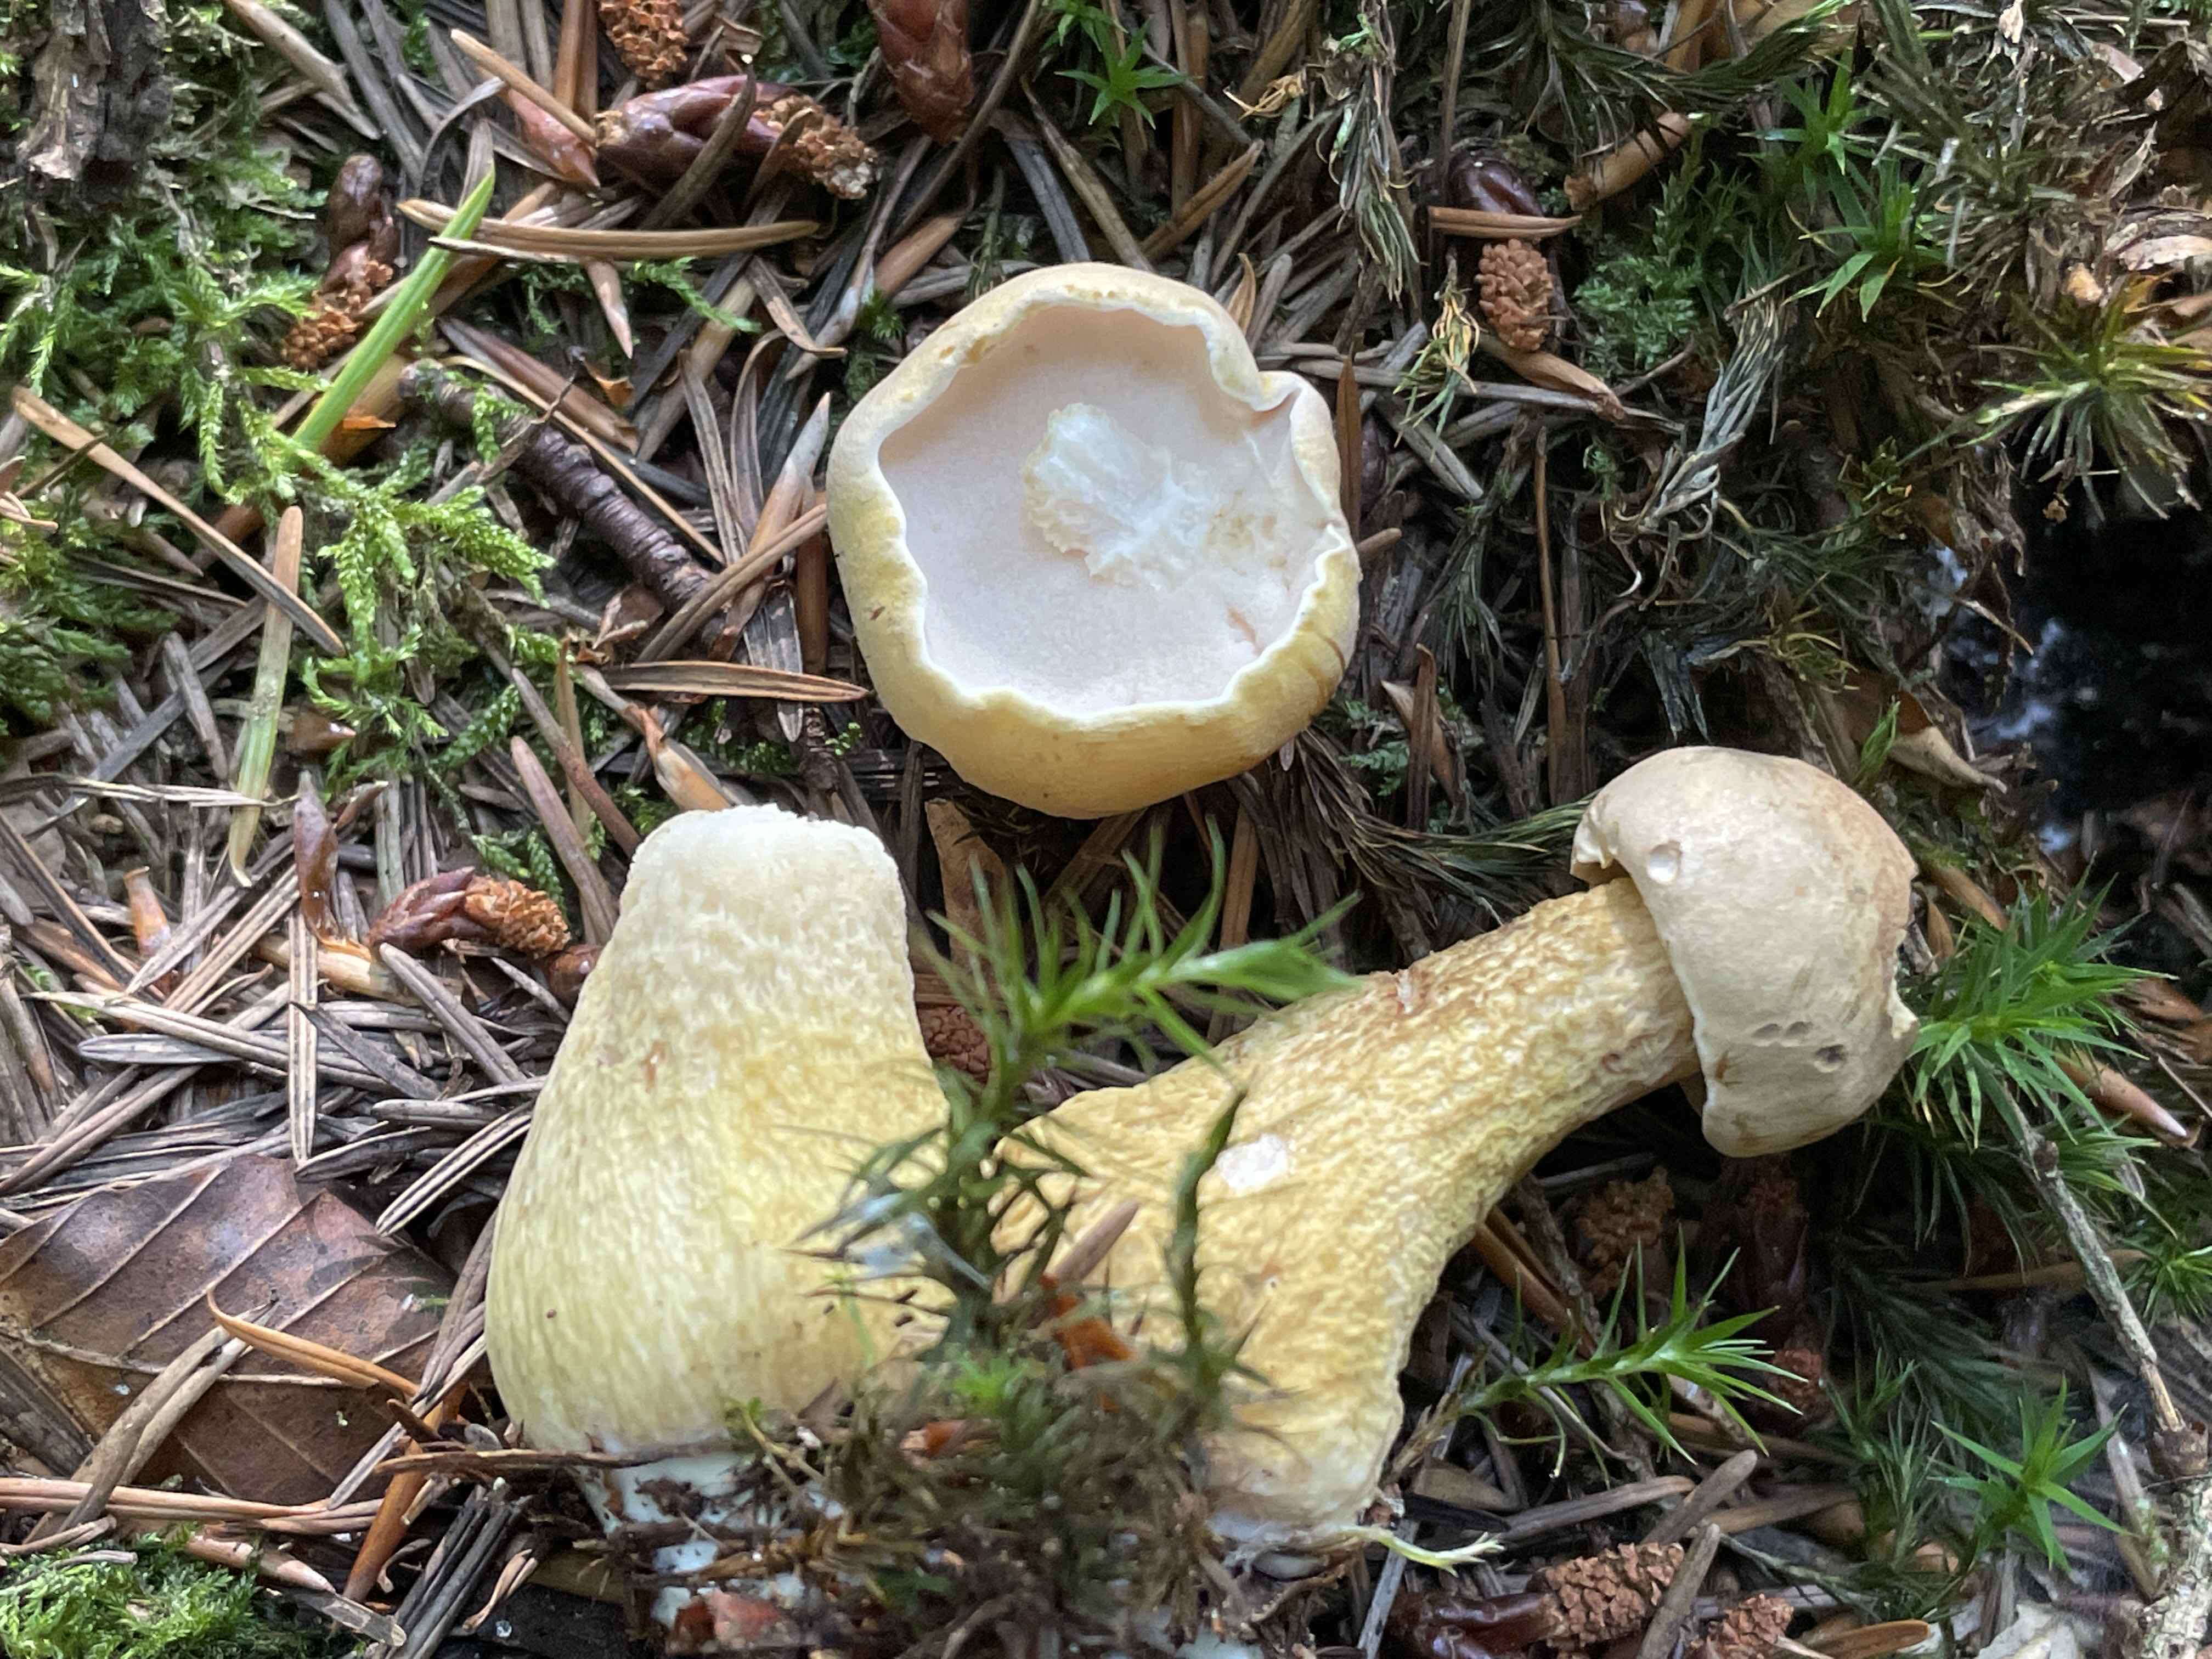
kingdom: Fungi
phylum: Basidiomycota
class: Agaricomycetes
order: Boletales
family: Boletaceae
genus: Tylopilus
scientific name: Tylopilus felleus
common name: galderørhat
